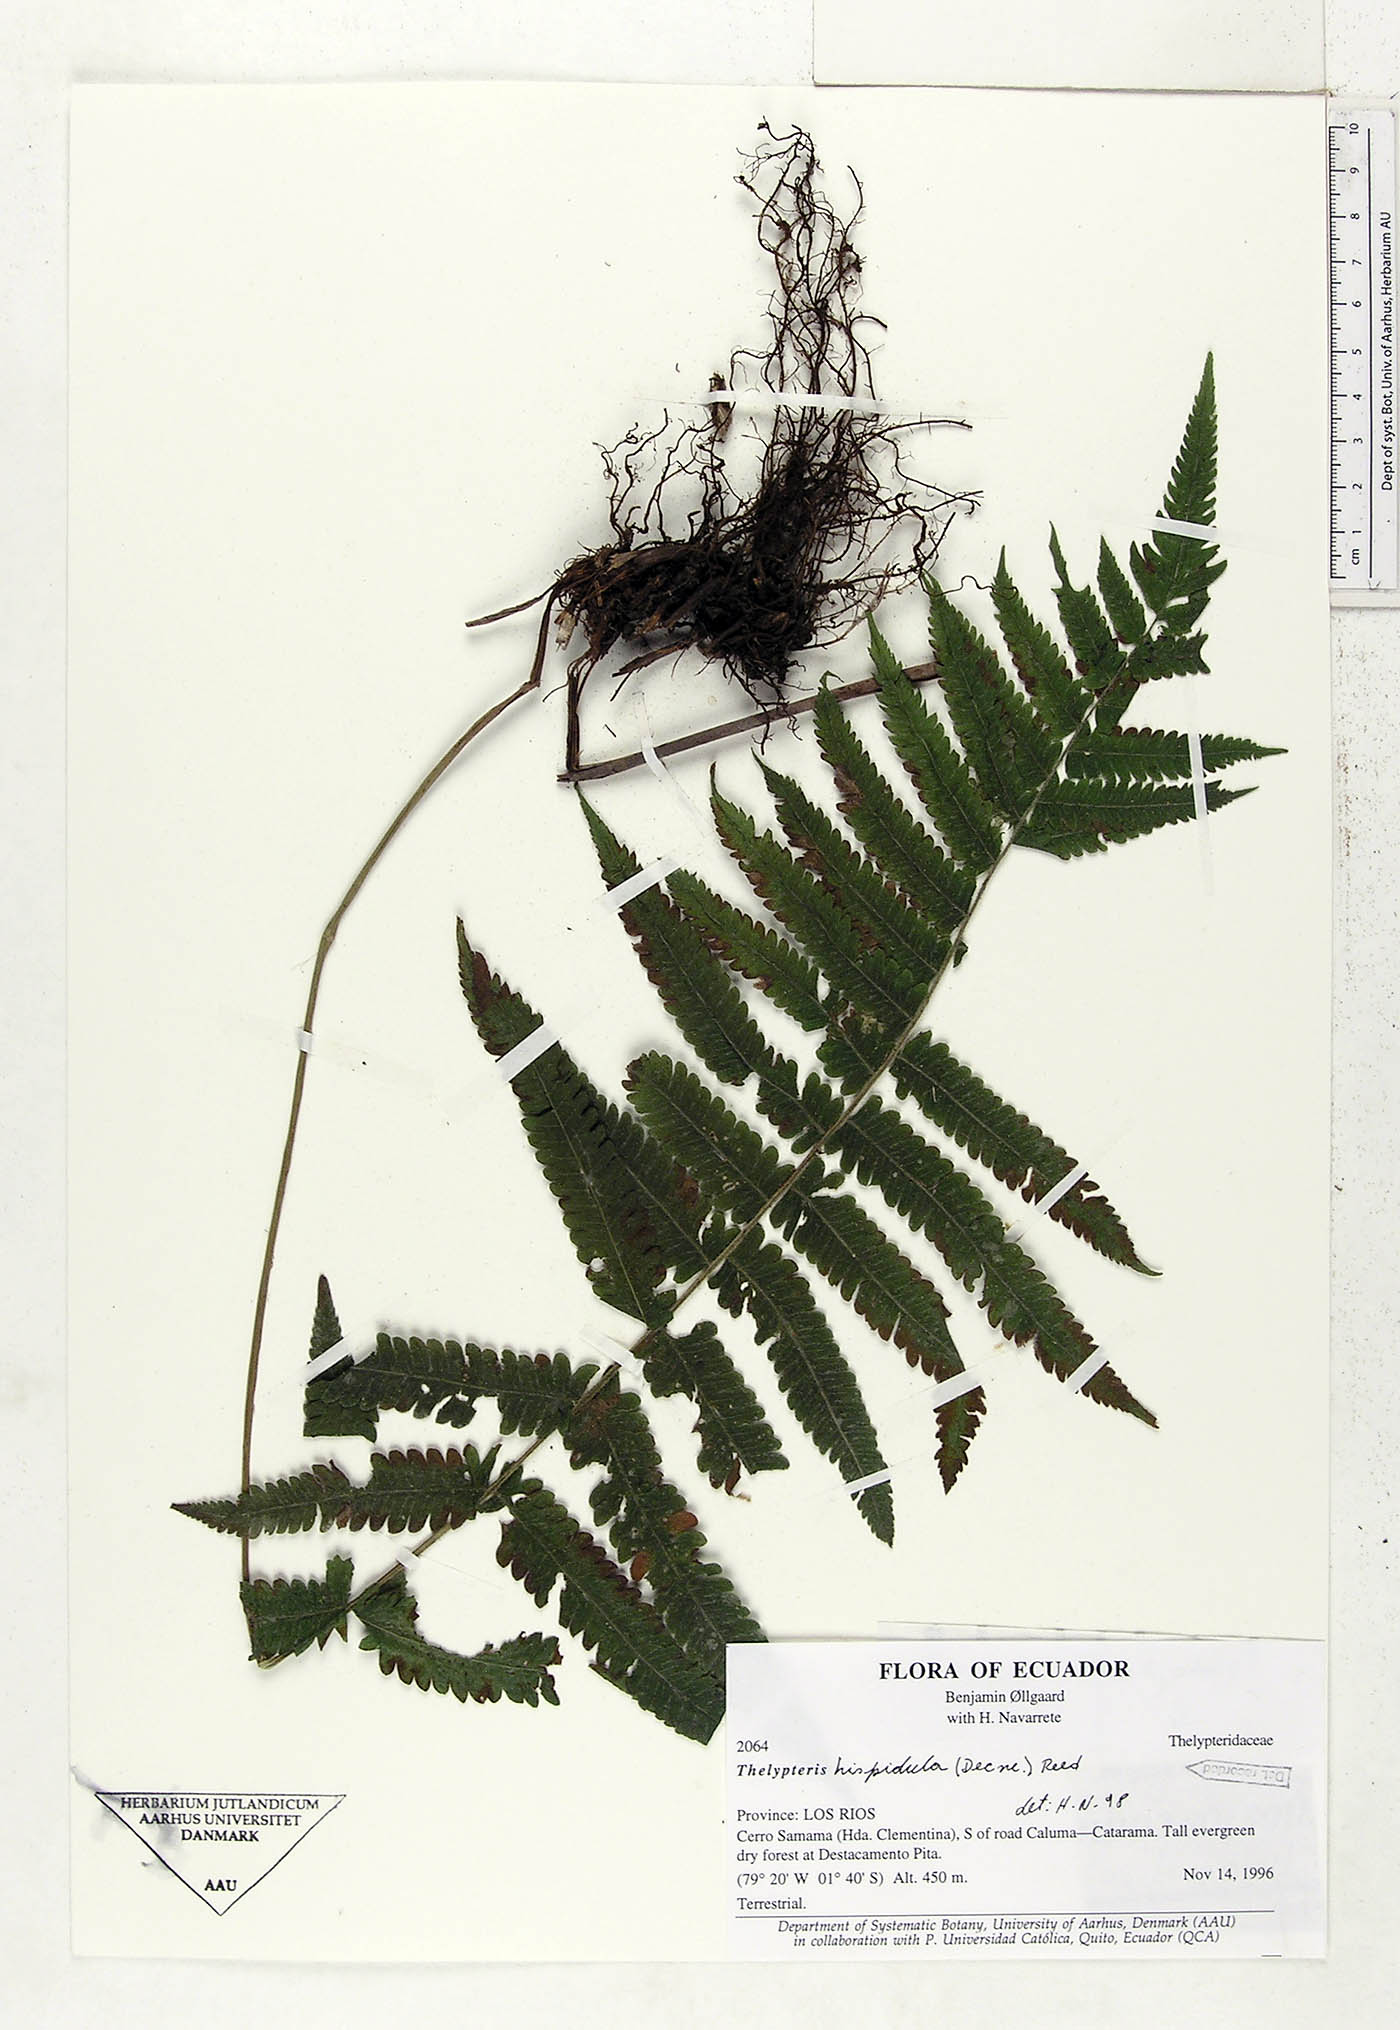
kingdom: Plantae
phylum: Tracheophyta
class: Polypodiopsida
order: Polypodiales
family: Thelypteridaceae
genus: Christella
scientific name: Christella hispidula
